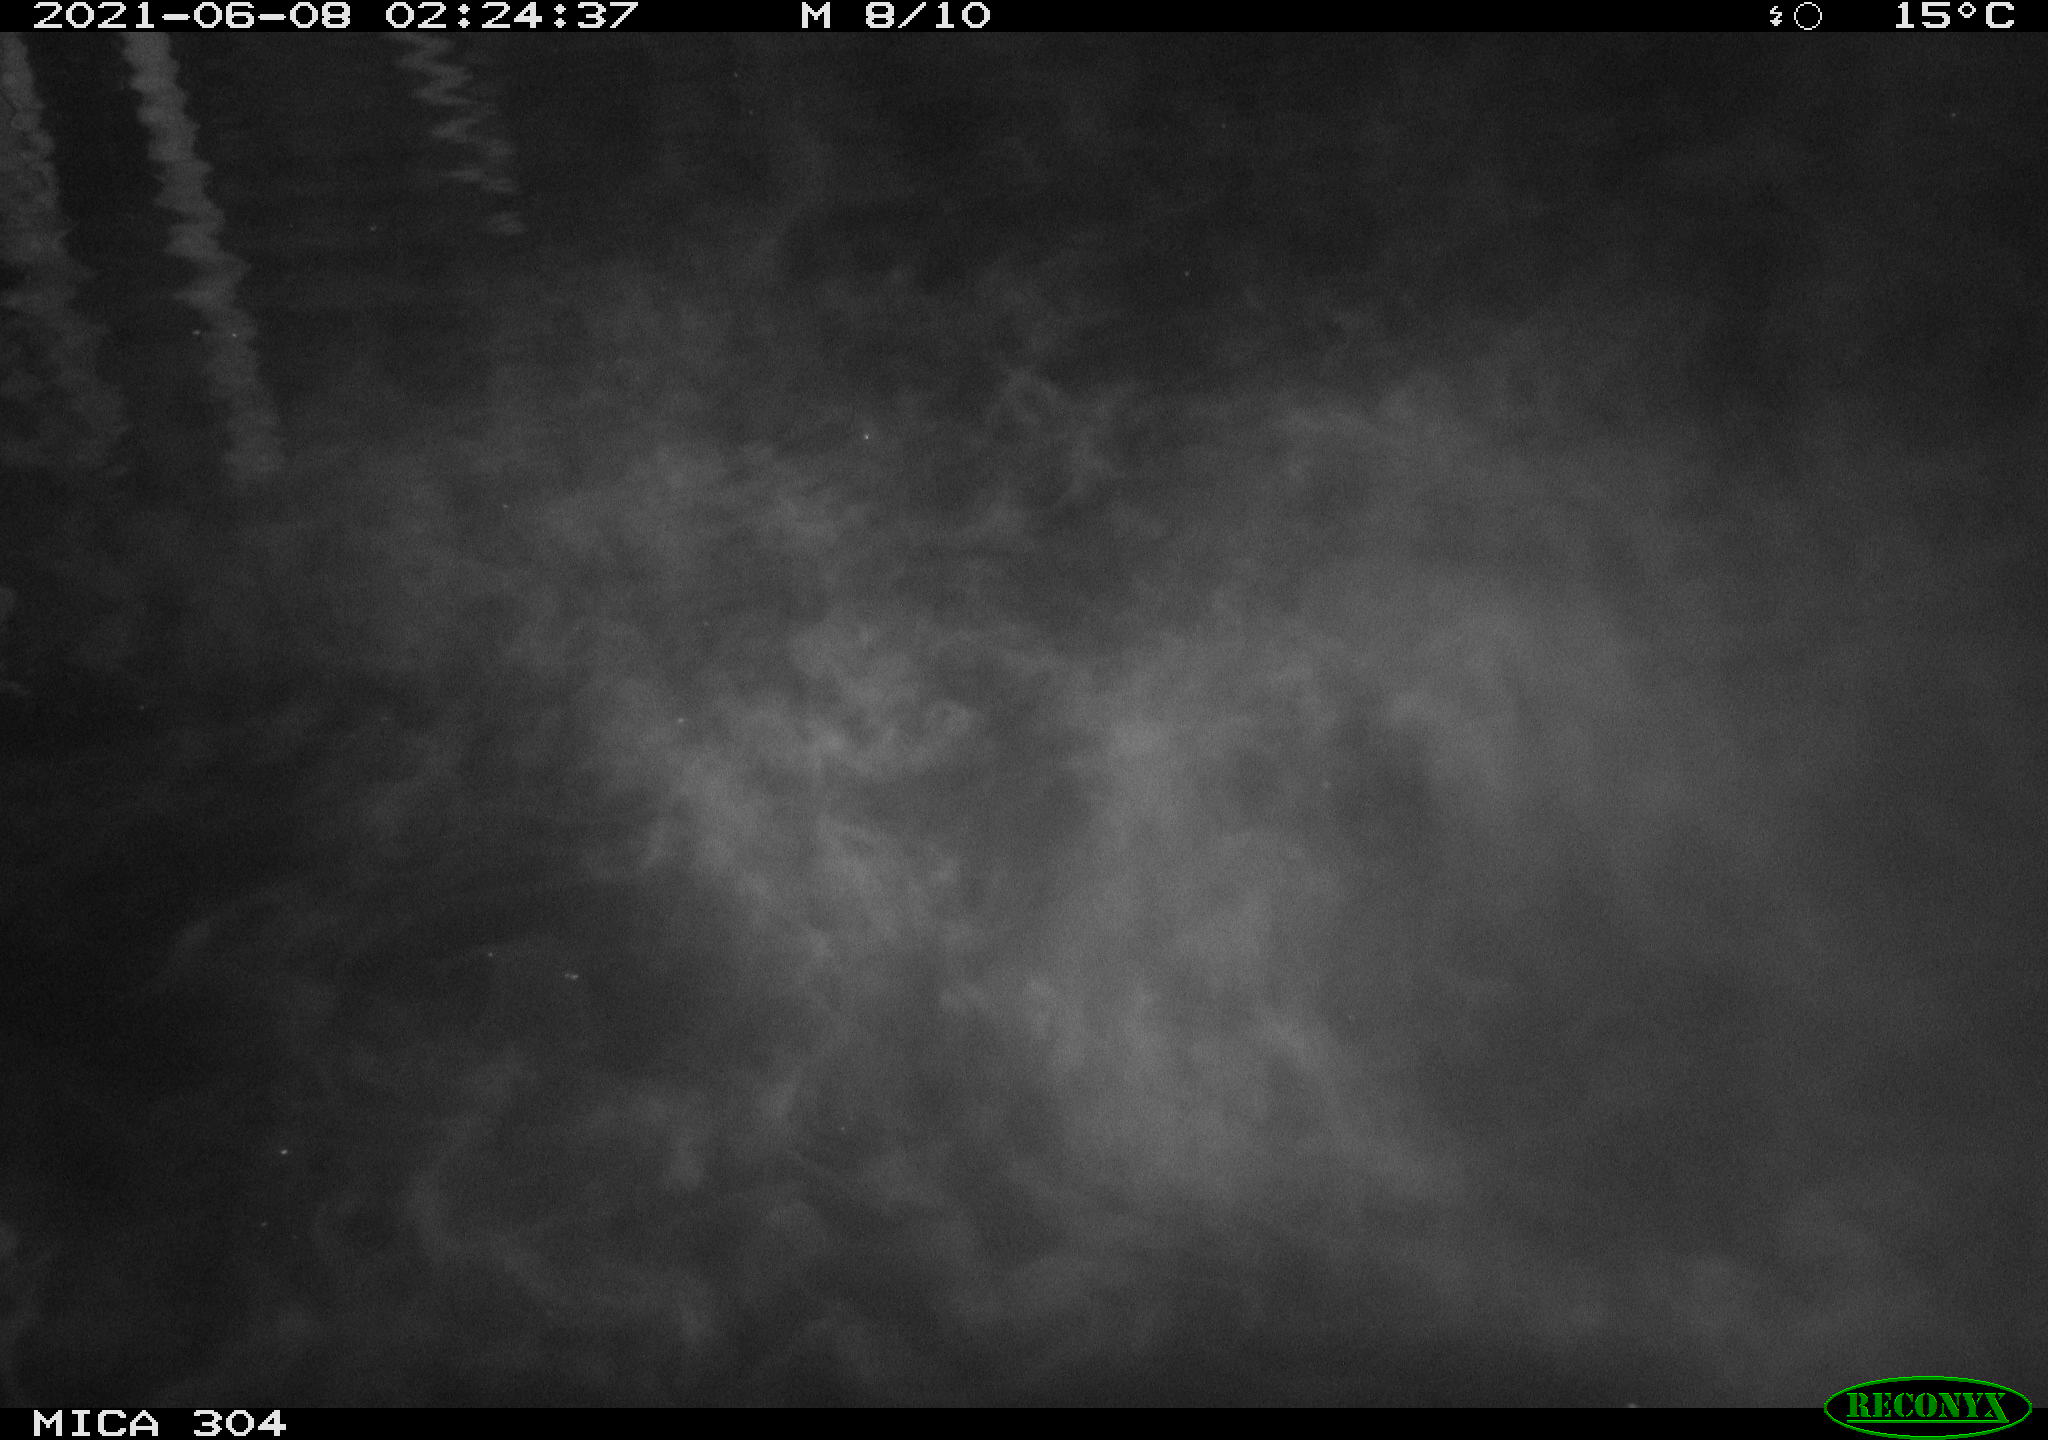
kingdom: Animalia
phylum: Chordata
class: Aves
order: Anseriformes
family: Anatidae
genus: Anas
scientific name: Anas platyrhynchos
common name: Mallard
